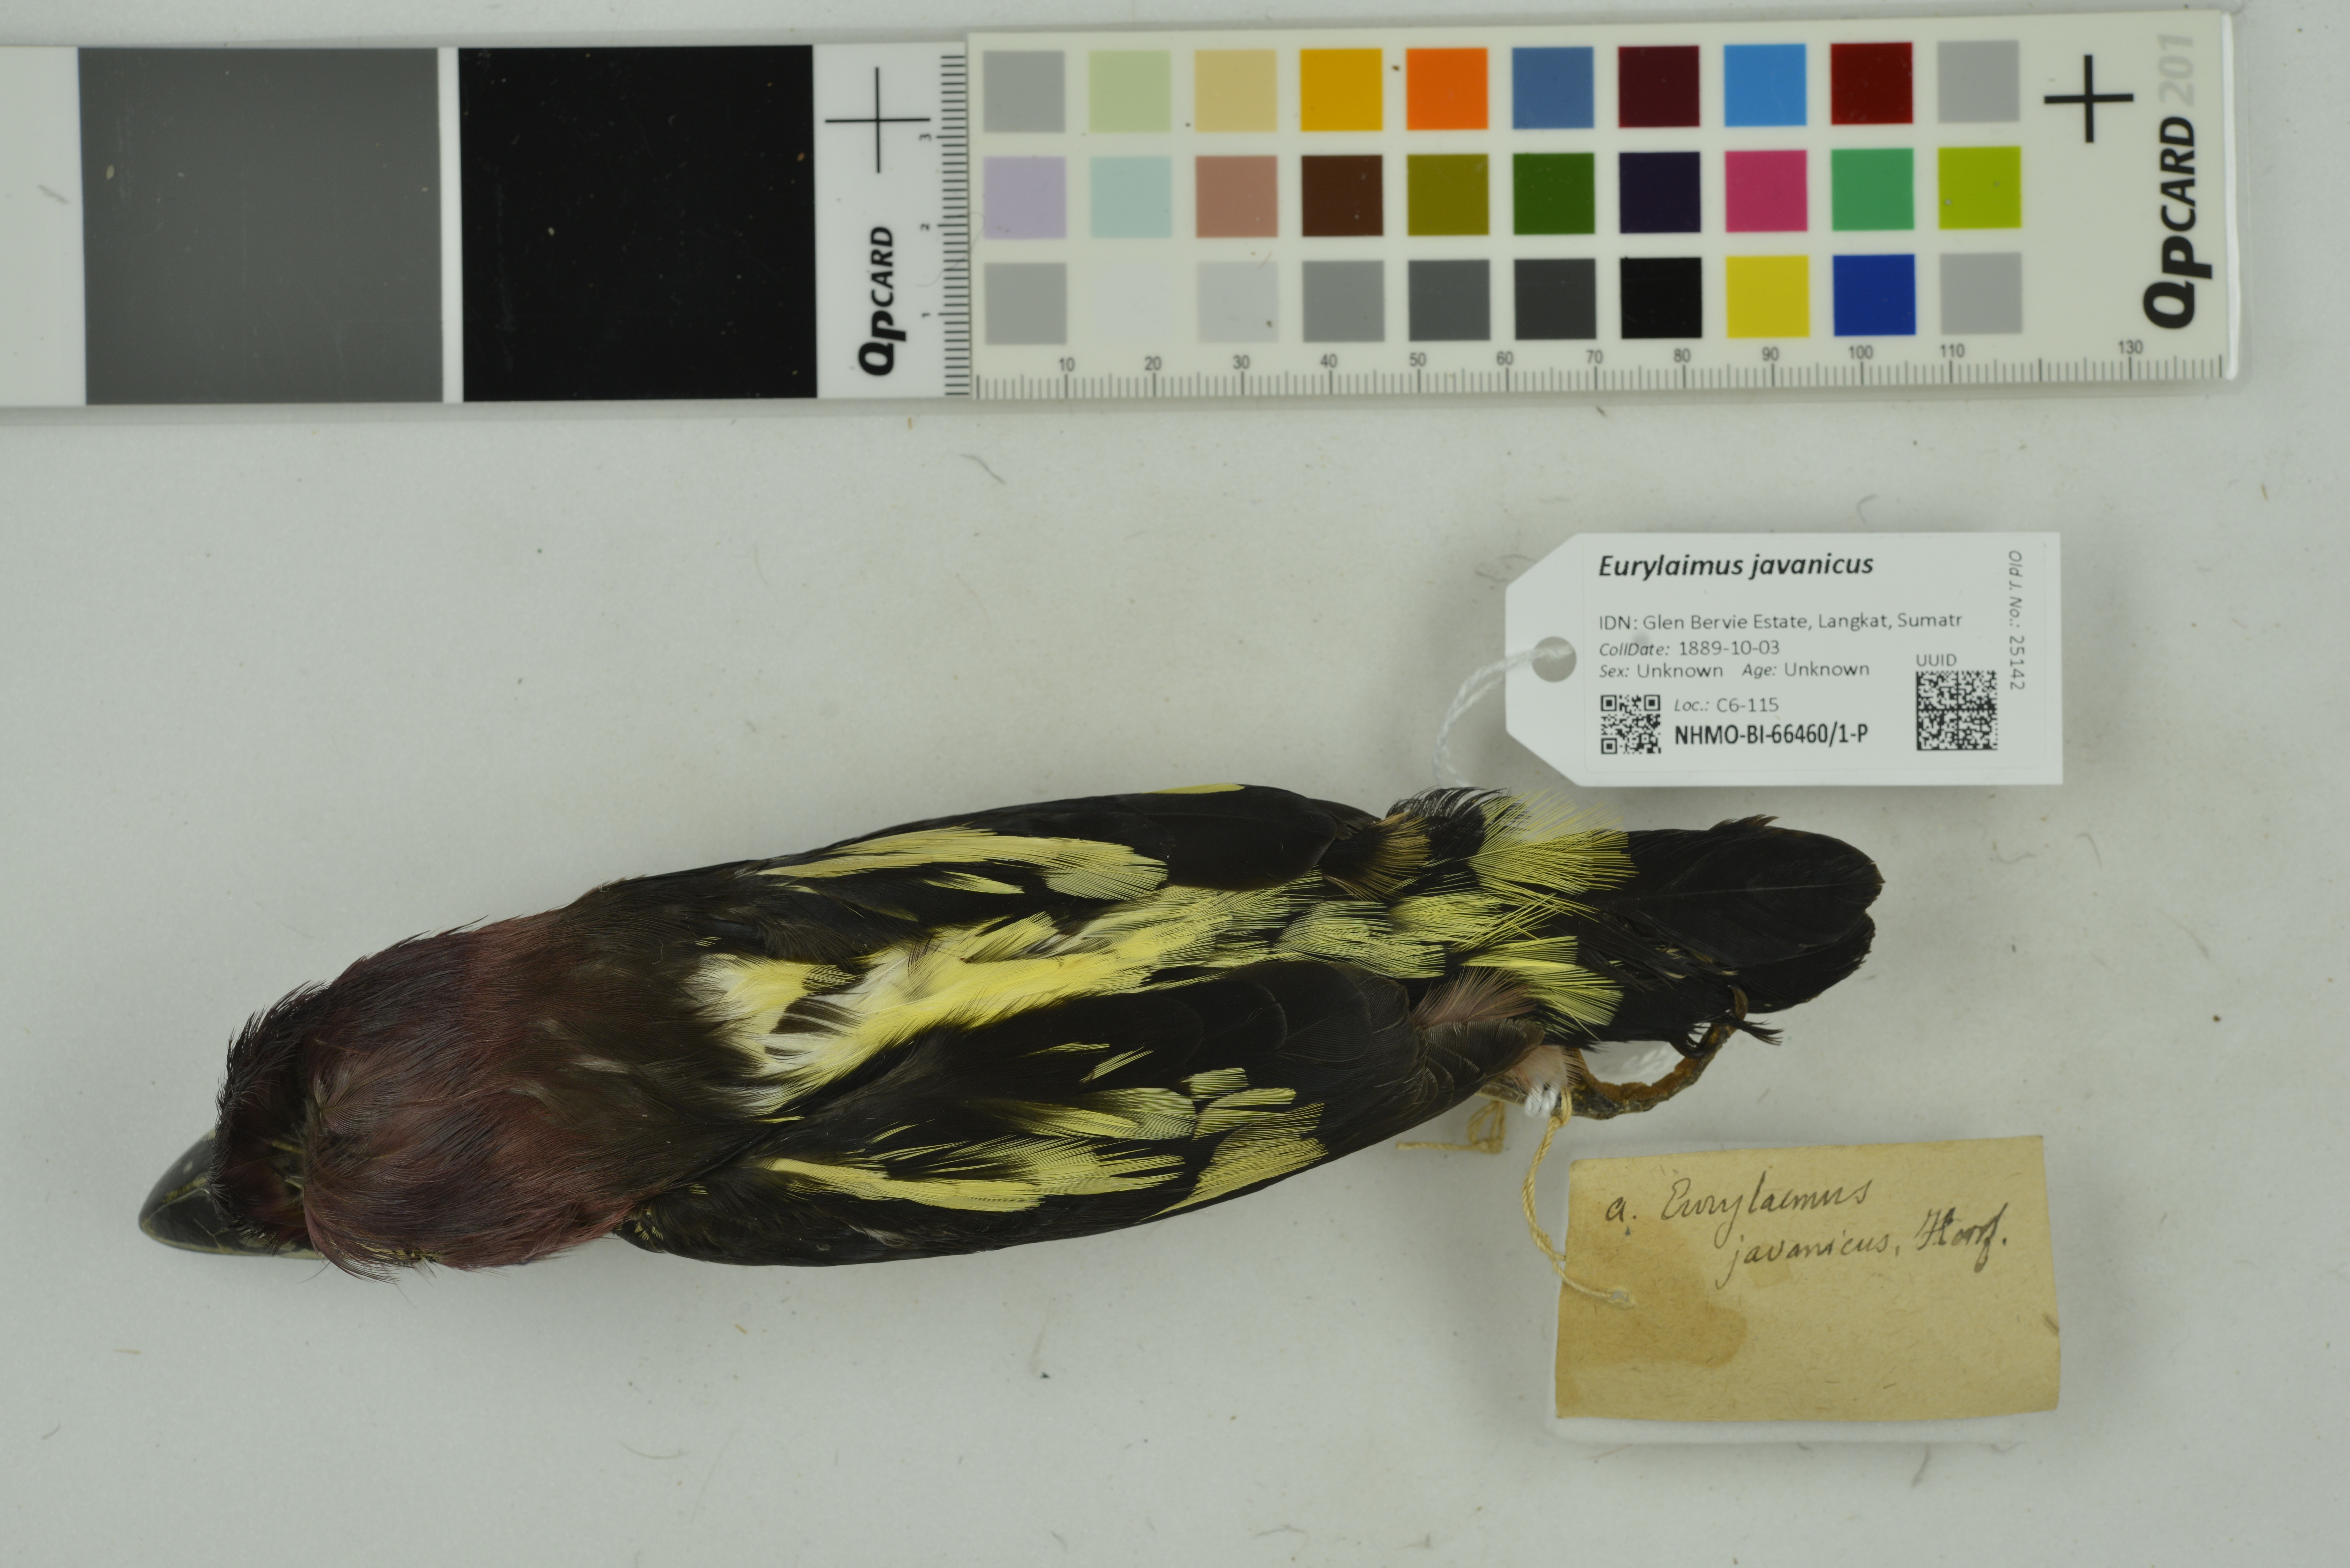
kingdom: Animalia
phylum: Chordata
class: Aves
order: Passeriformes
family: Eurylaimidae
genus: Eurylaimus
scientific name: Eurylaimus javanicus
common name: Banded broadbill
